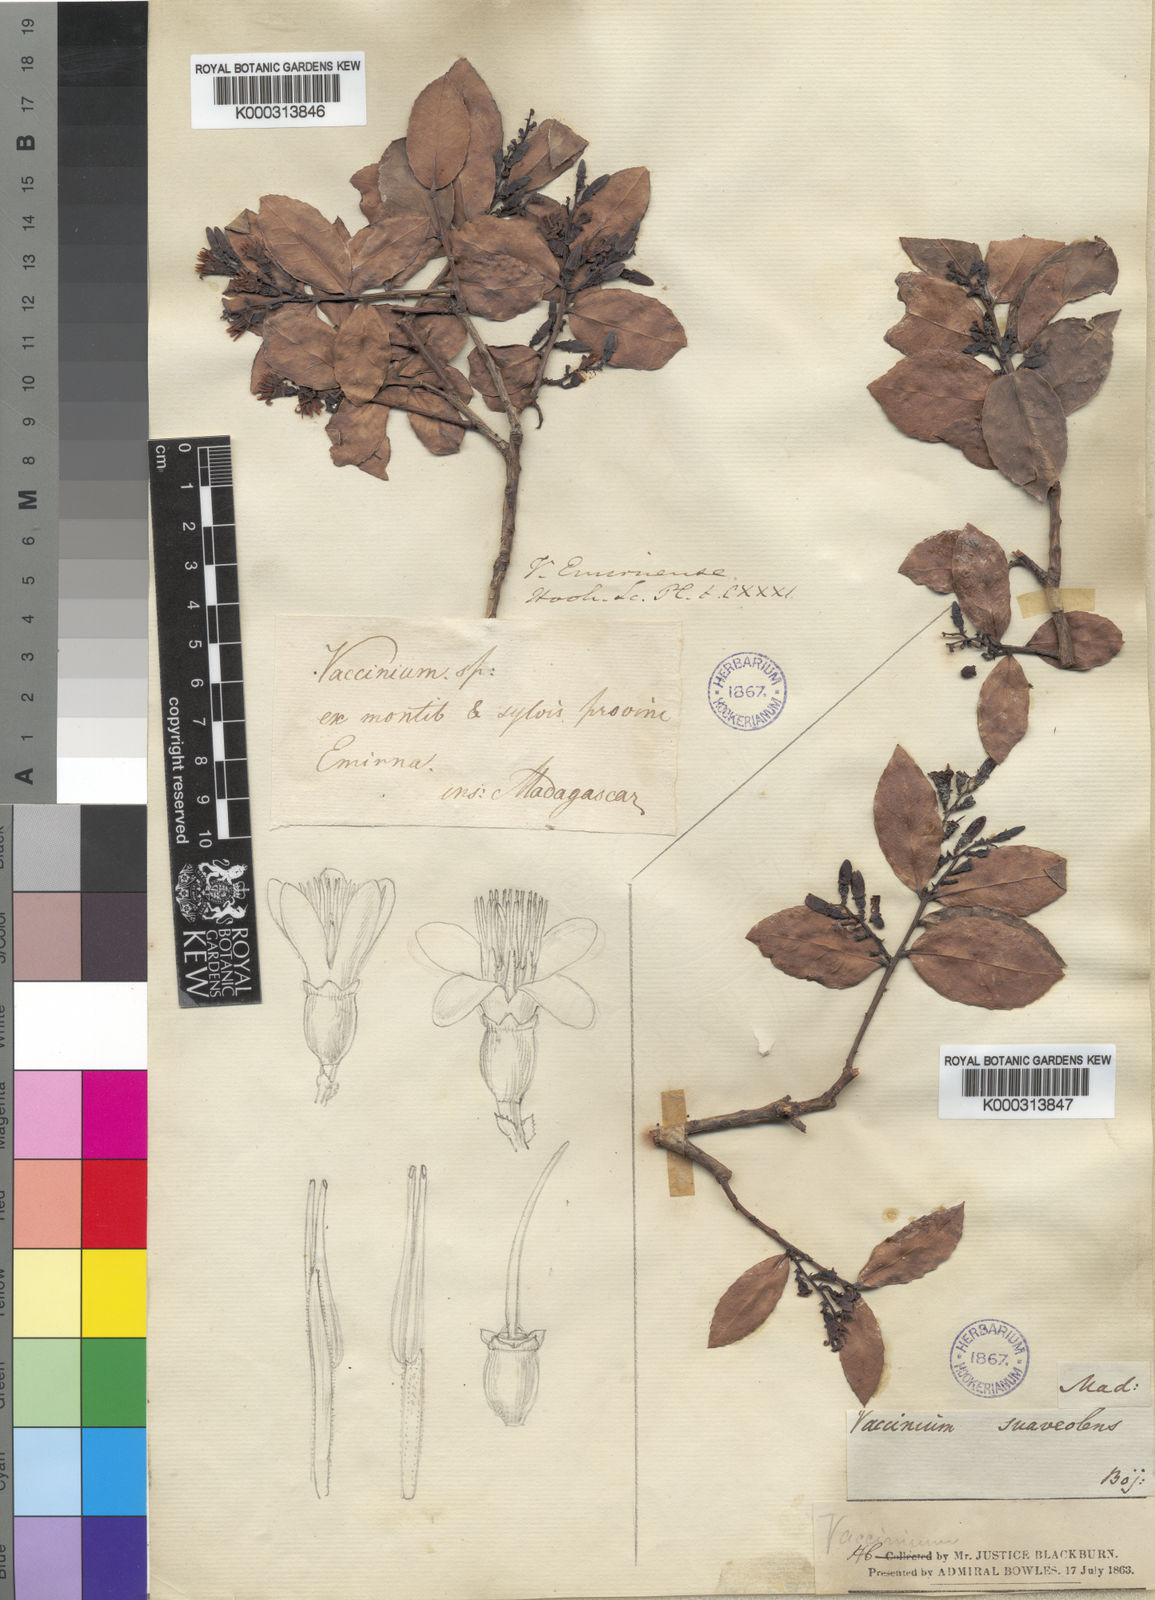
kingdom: Plantae
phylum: Tracheophyta
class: Magnoliopsida
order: Ericales
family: Ericaceae
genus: Vaccinium
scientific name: Vaccinium madagascariense
